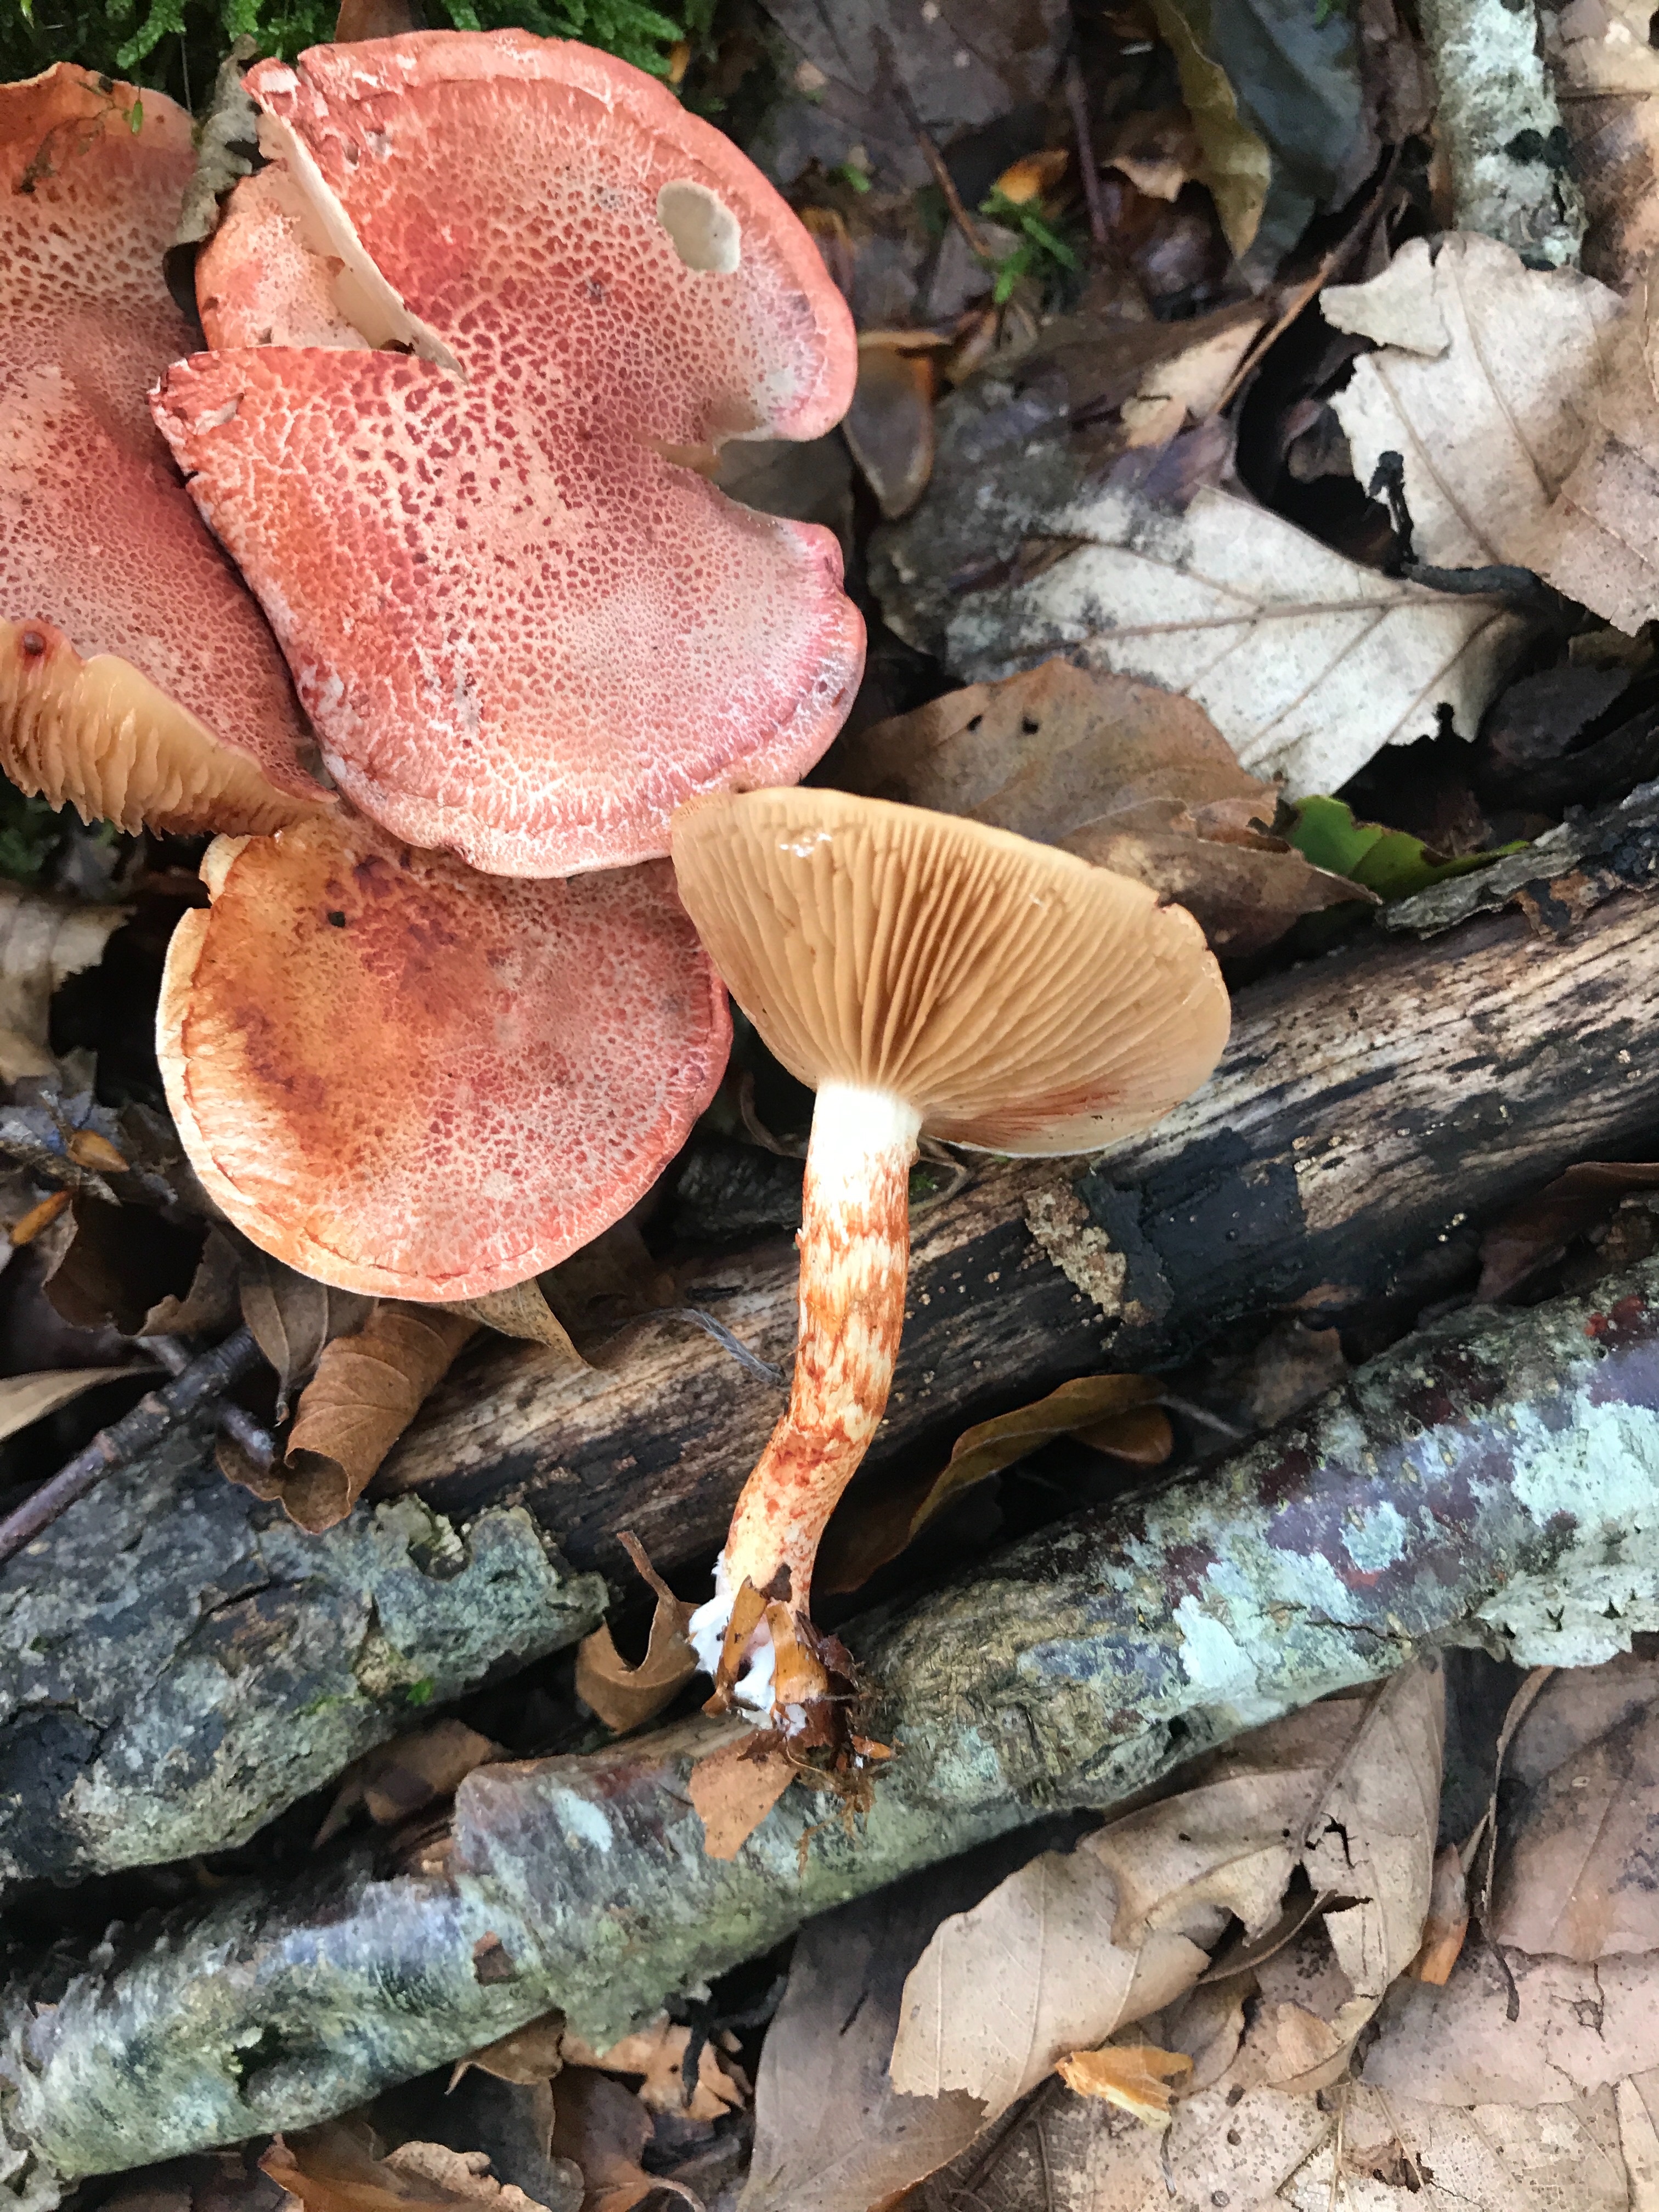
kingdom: Fungi
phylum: Basidiomycota
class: Agaricomycetes
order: Agaricales
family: Cortinariaceae
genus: Cortinarius
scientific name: Cortinarius bolaris
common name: cinnoberskællet slørhat
